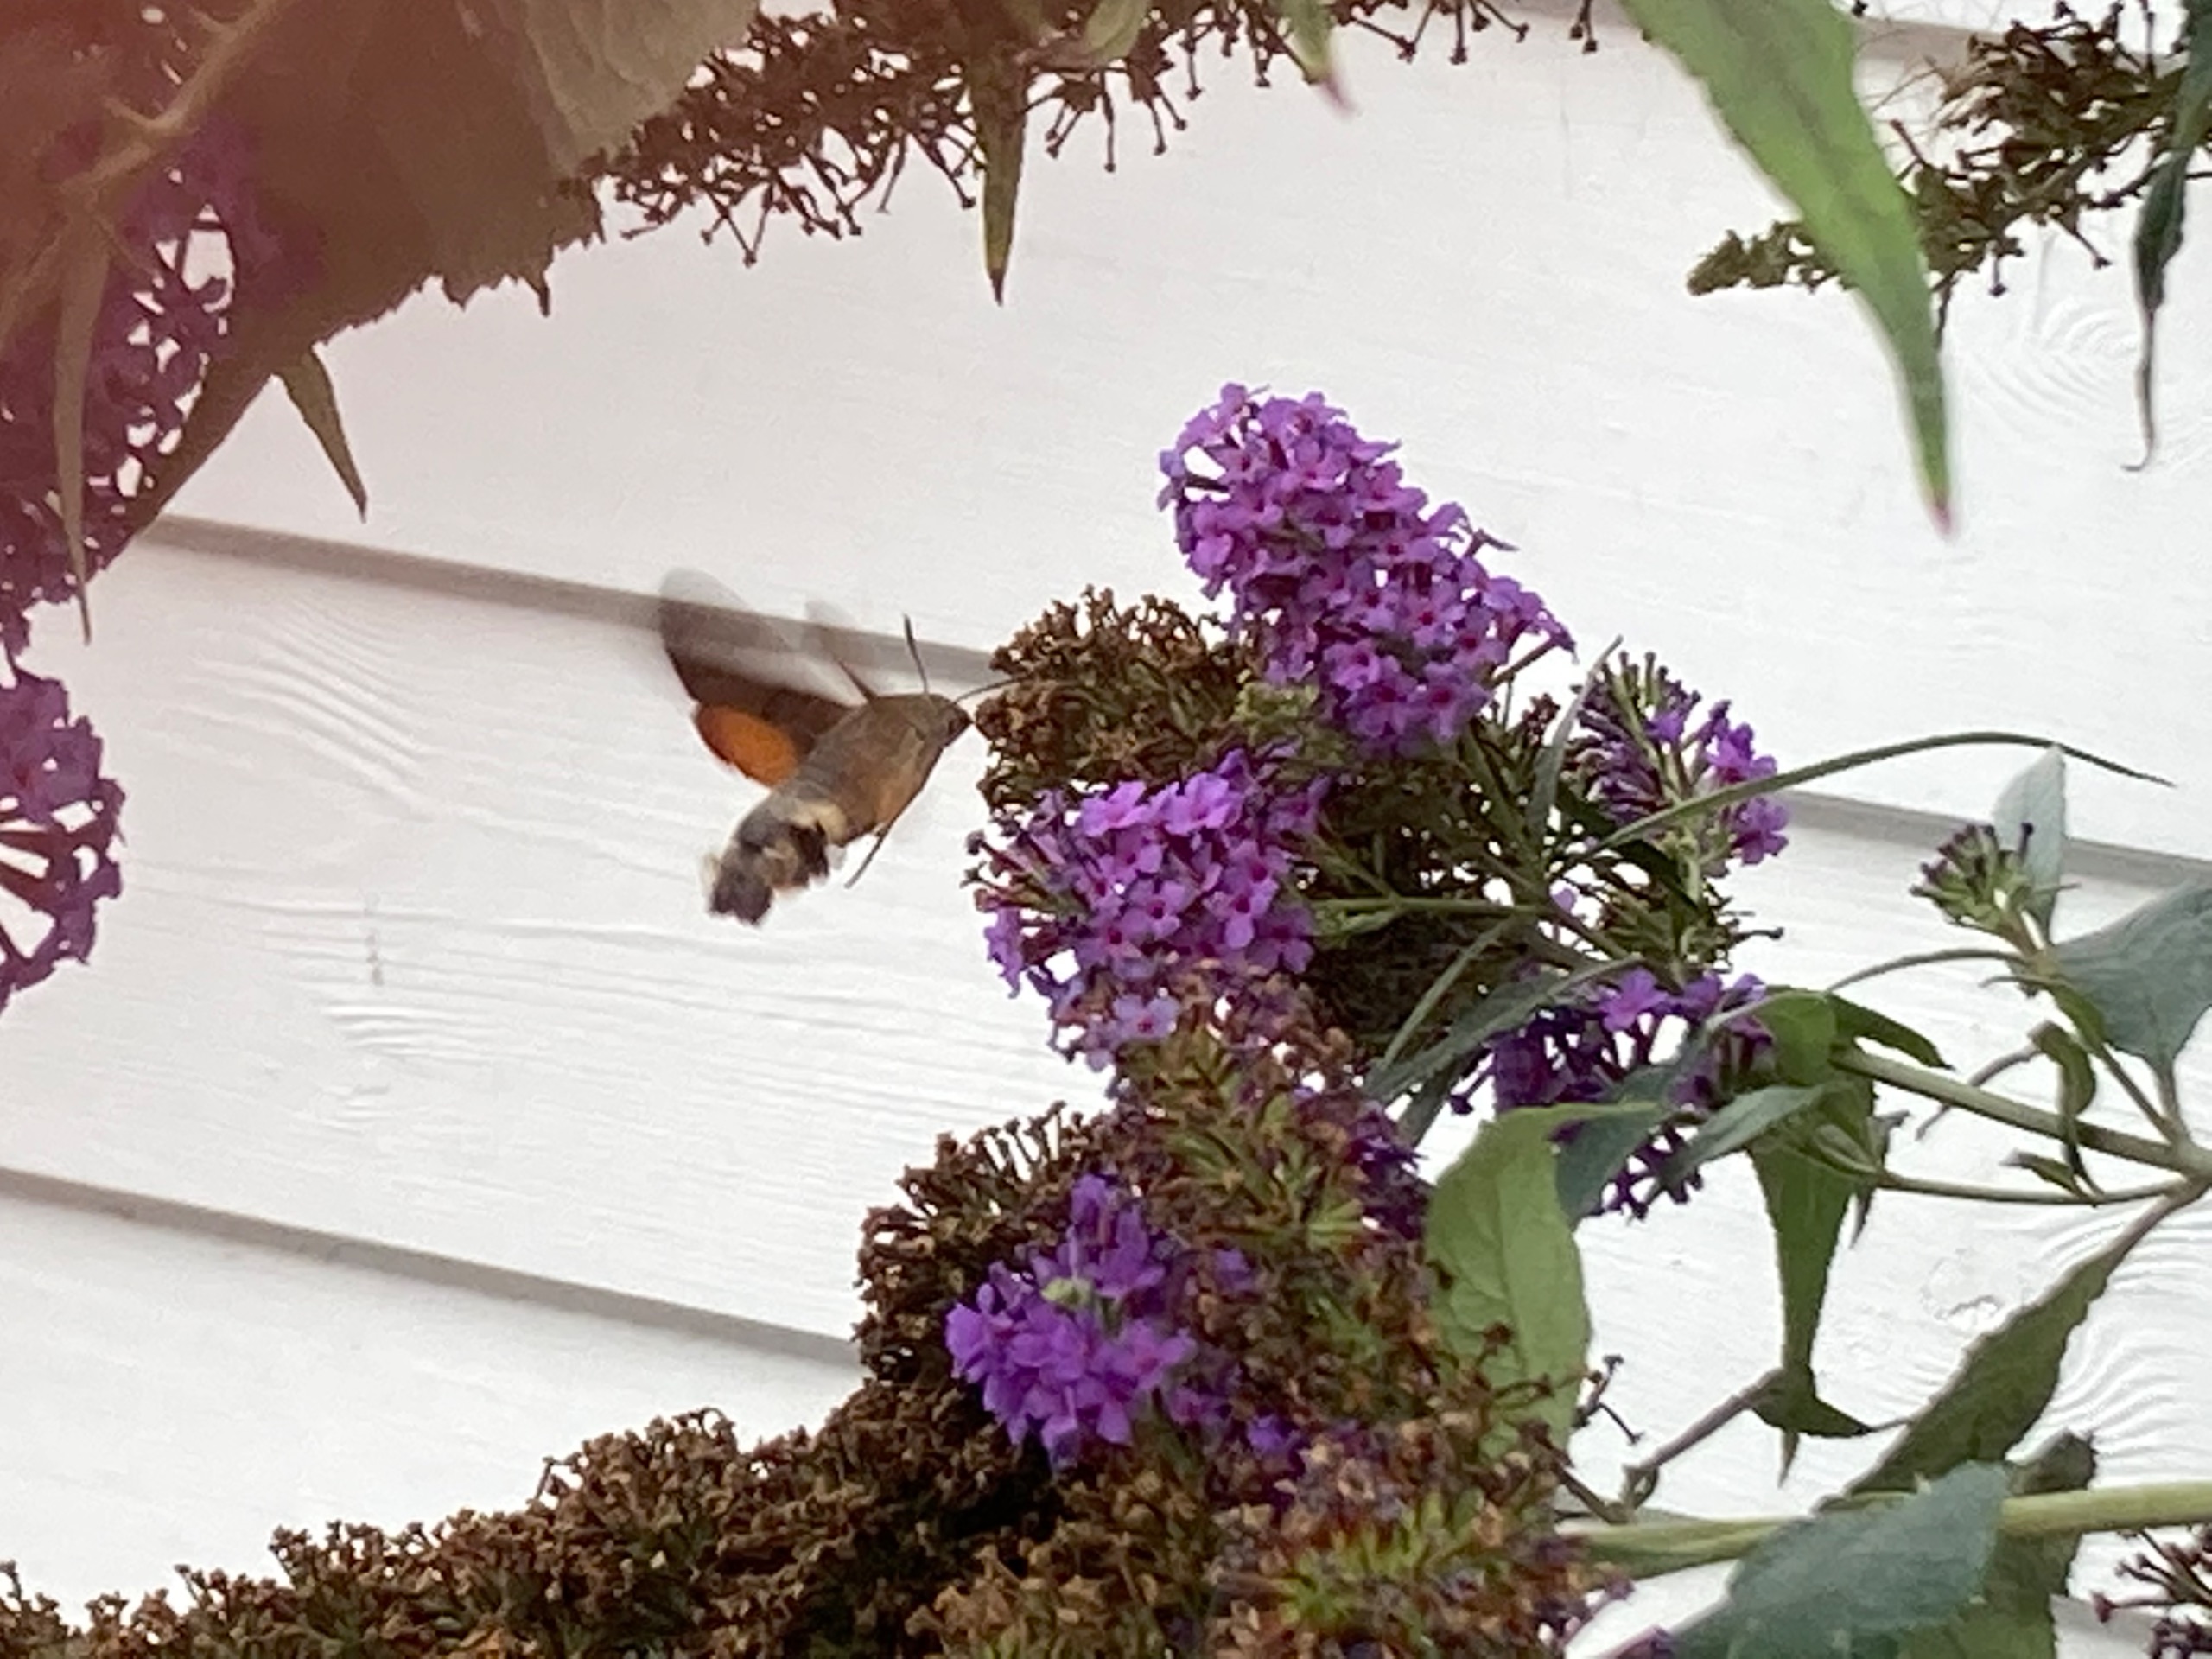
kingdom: Animalia
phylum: Arthropoda
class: Insecta
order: Lepidoptera
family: Sphingidae
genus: Macroglossum
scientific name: Macroglossum stellatarum
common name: Duehale
